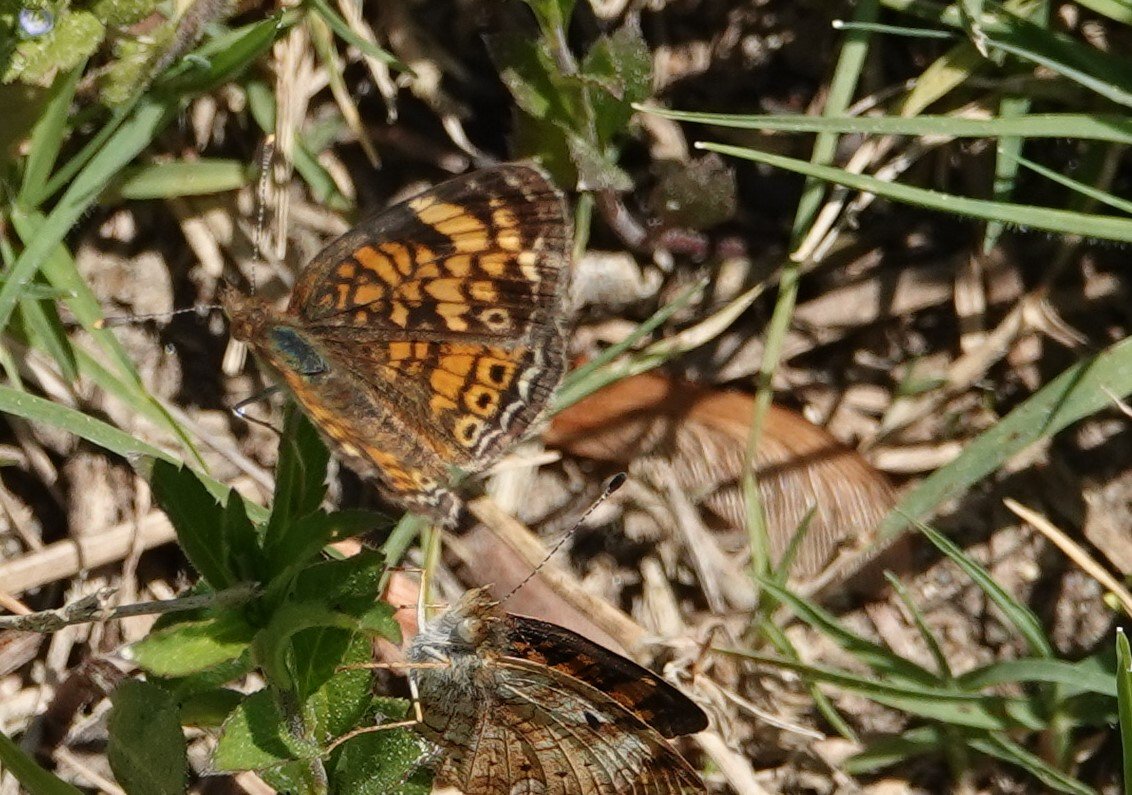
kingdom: Animalia
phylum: Arthropoda
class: Insecta
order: Lepidoptera
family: Nymphalidae
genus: Phyciodes
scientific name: Phyciodes tharos
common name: Pearl Crescent
